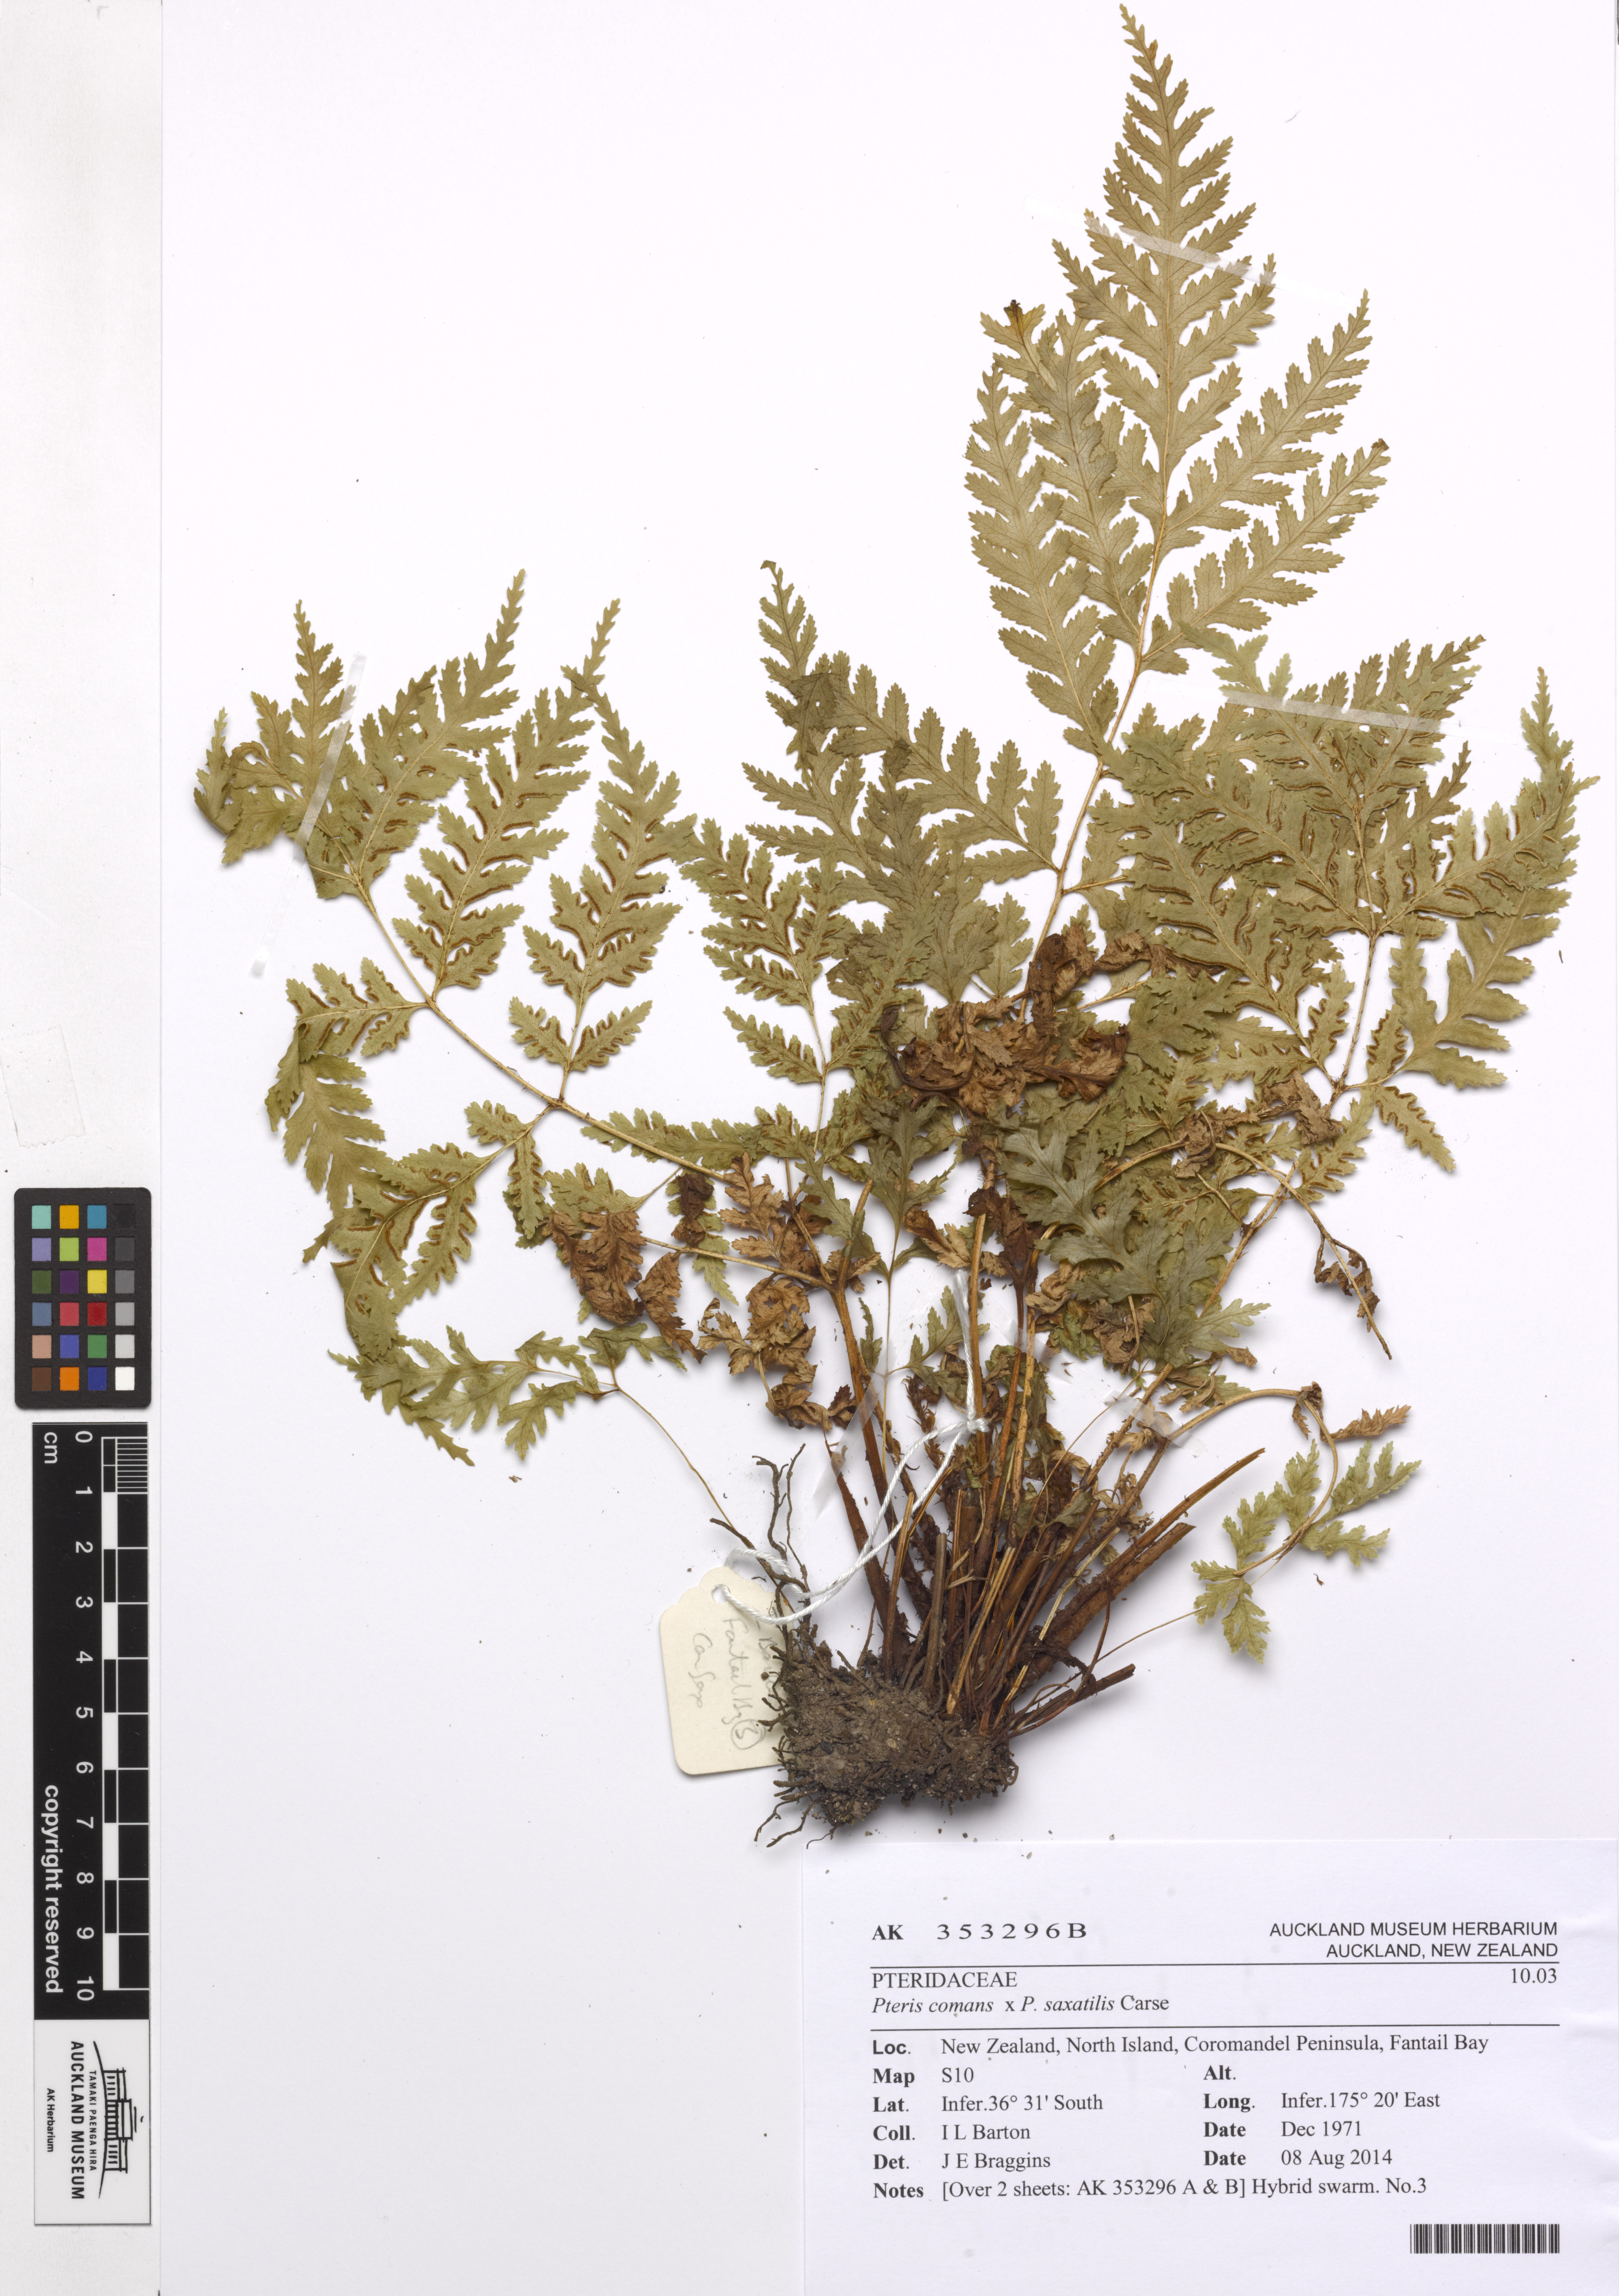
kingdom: Plantae
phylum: Tracheophyta
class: Polypodiopsida
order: Polypodiales
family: Pteridaceae
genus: Pteris
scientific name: Pteris
